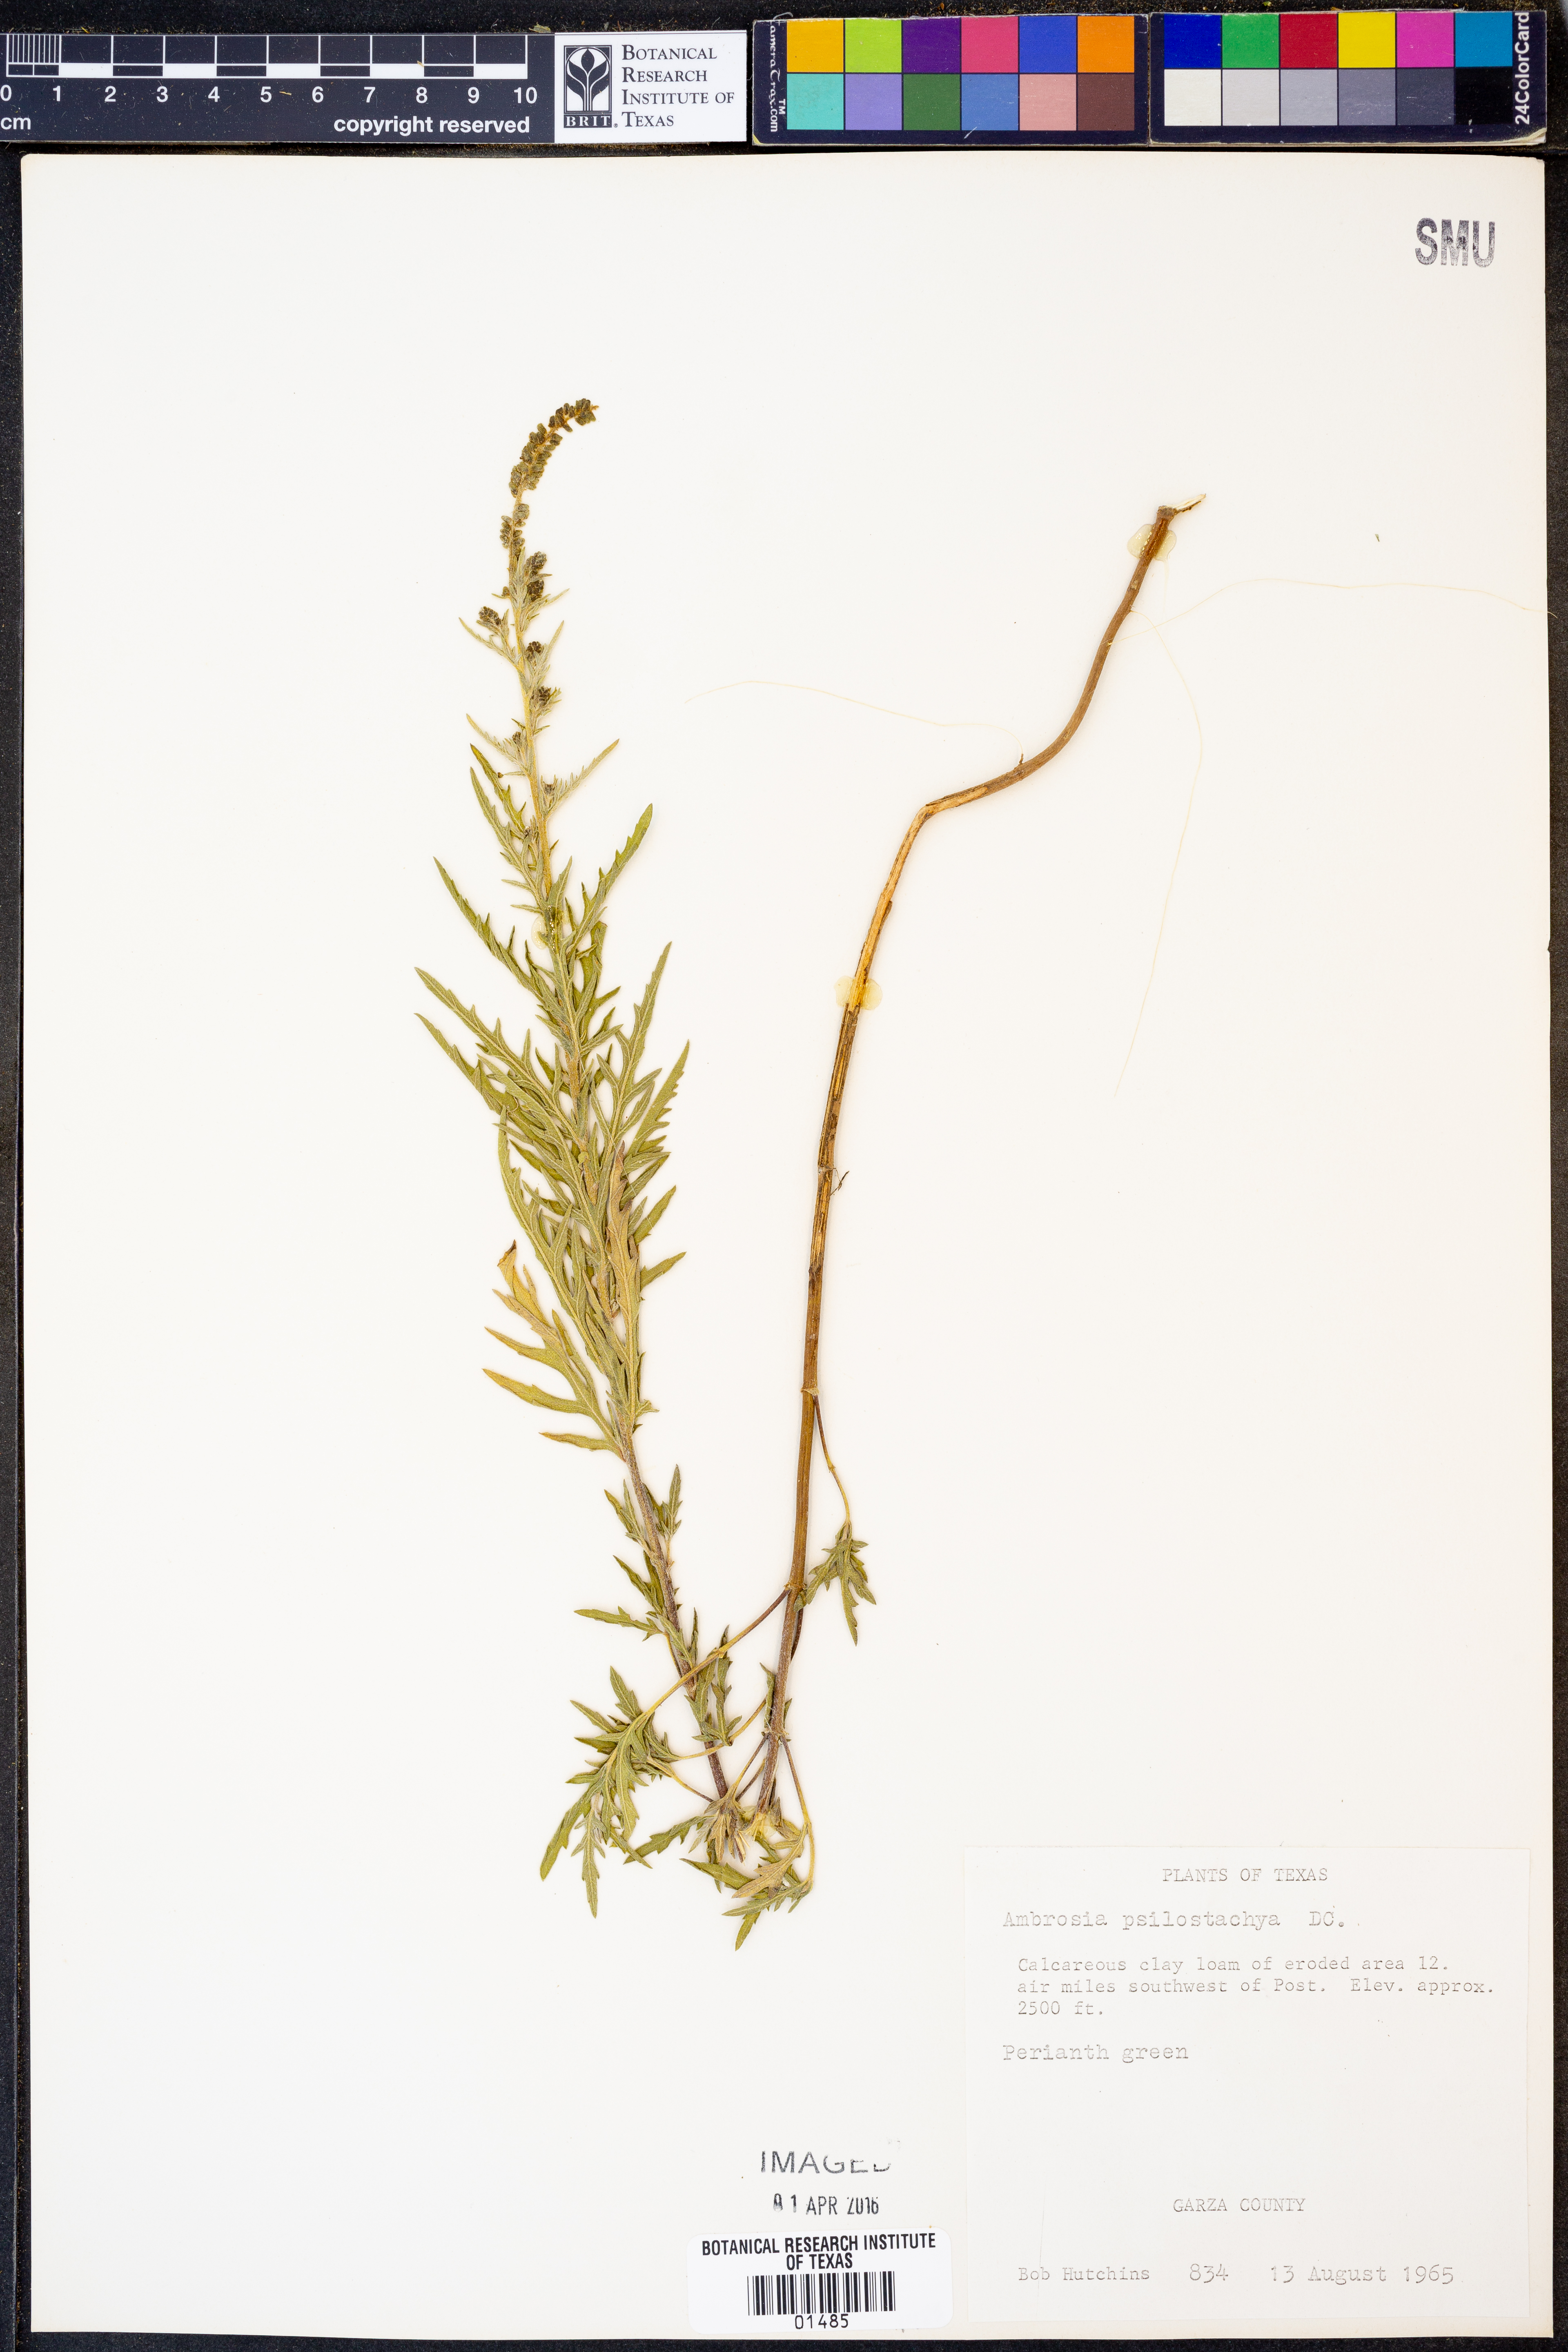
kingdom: Plantae
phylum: Tracheophyta
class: Magnoliopsida
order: Asterales
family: Asteraceae
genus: Ambrosia
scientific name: Ambrosia psilostachya
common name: Perennial ragweed
